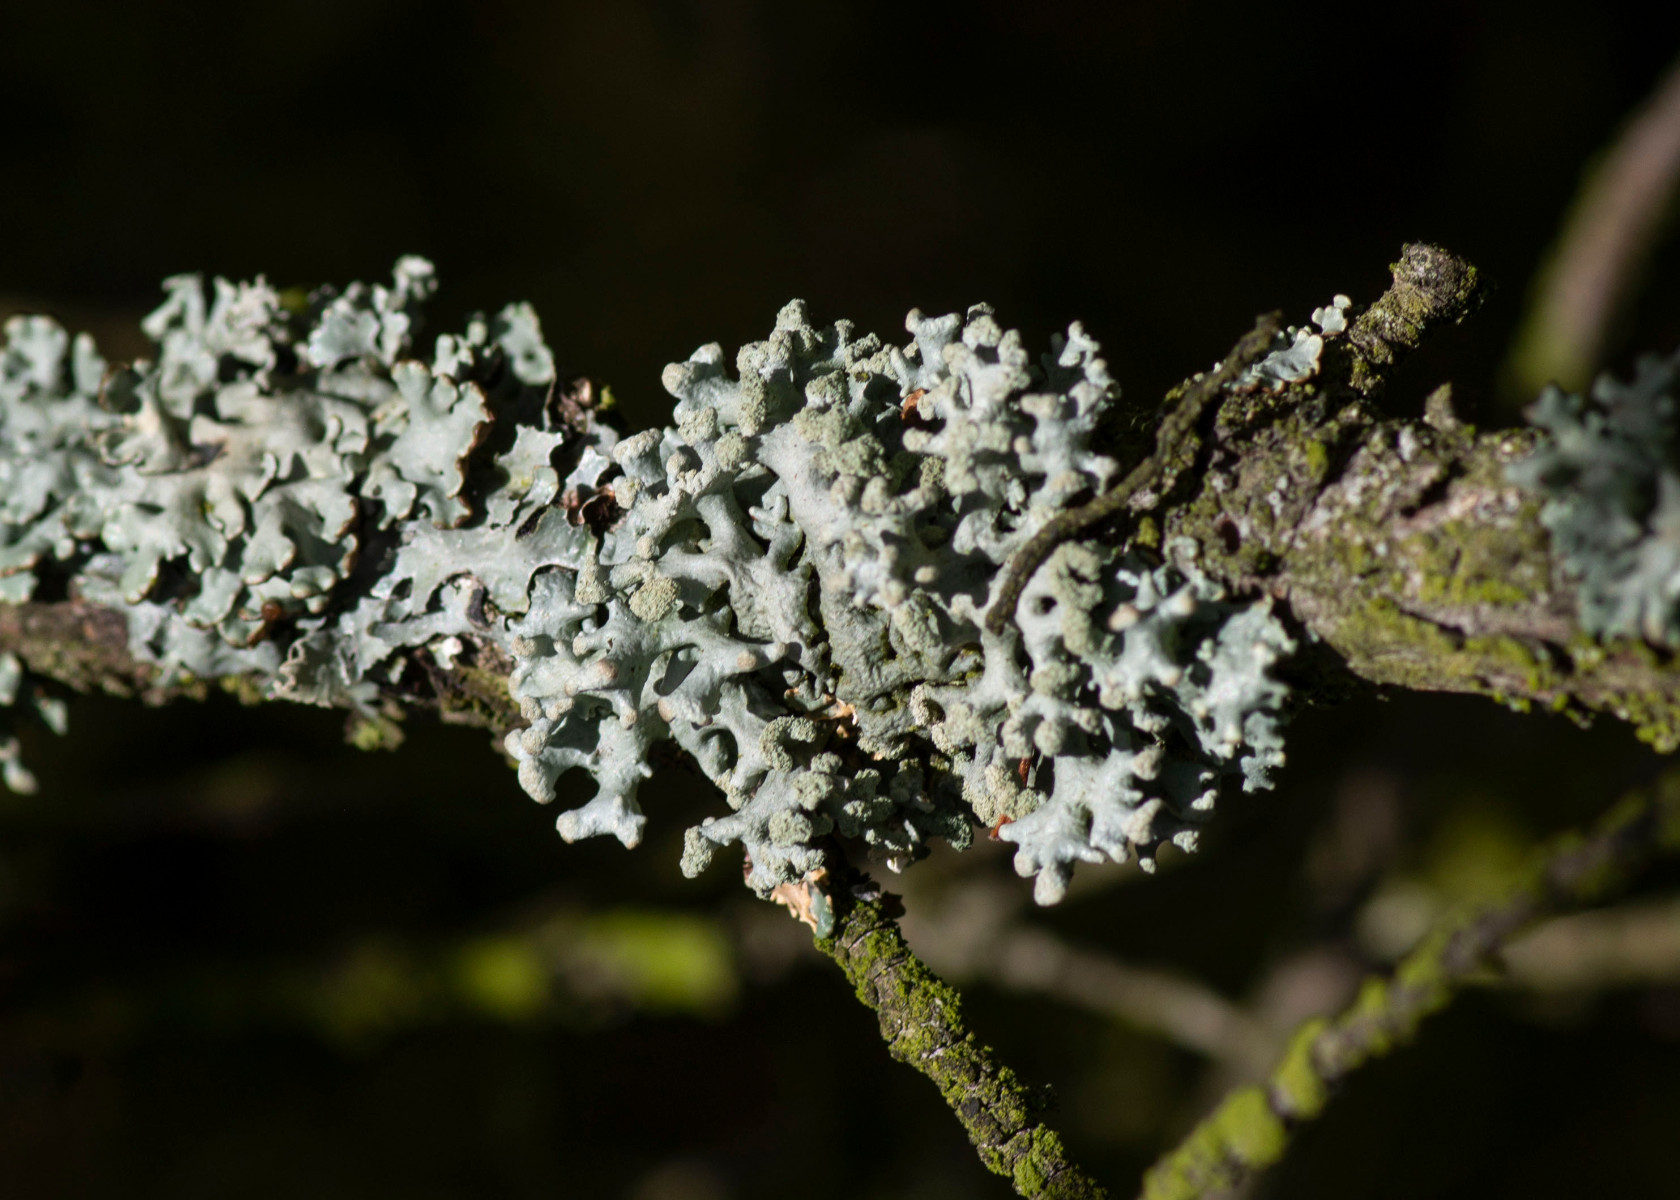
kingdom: Fungi
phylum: Ascomycota
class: Lecanoromycetes
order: Lecanorales
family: Parmeliaceae
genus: Hypogymnia
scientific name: Hypogymnia tubulosa
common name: finger-kvistlav
